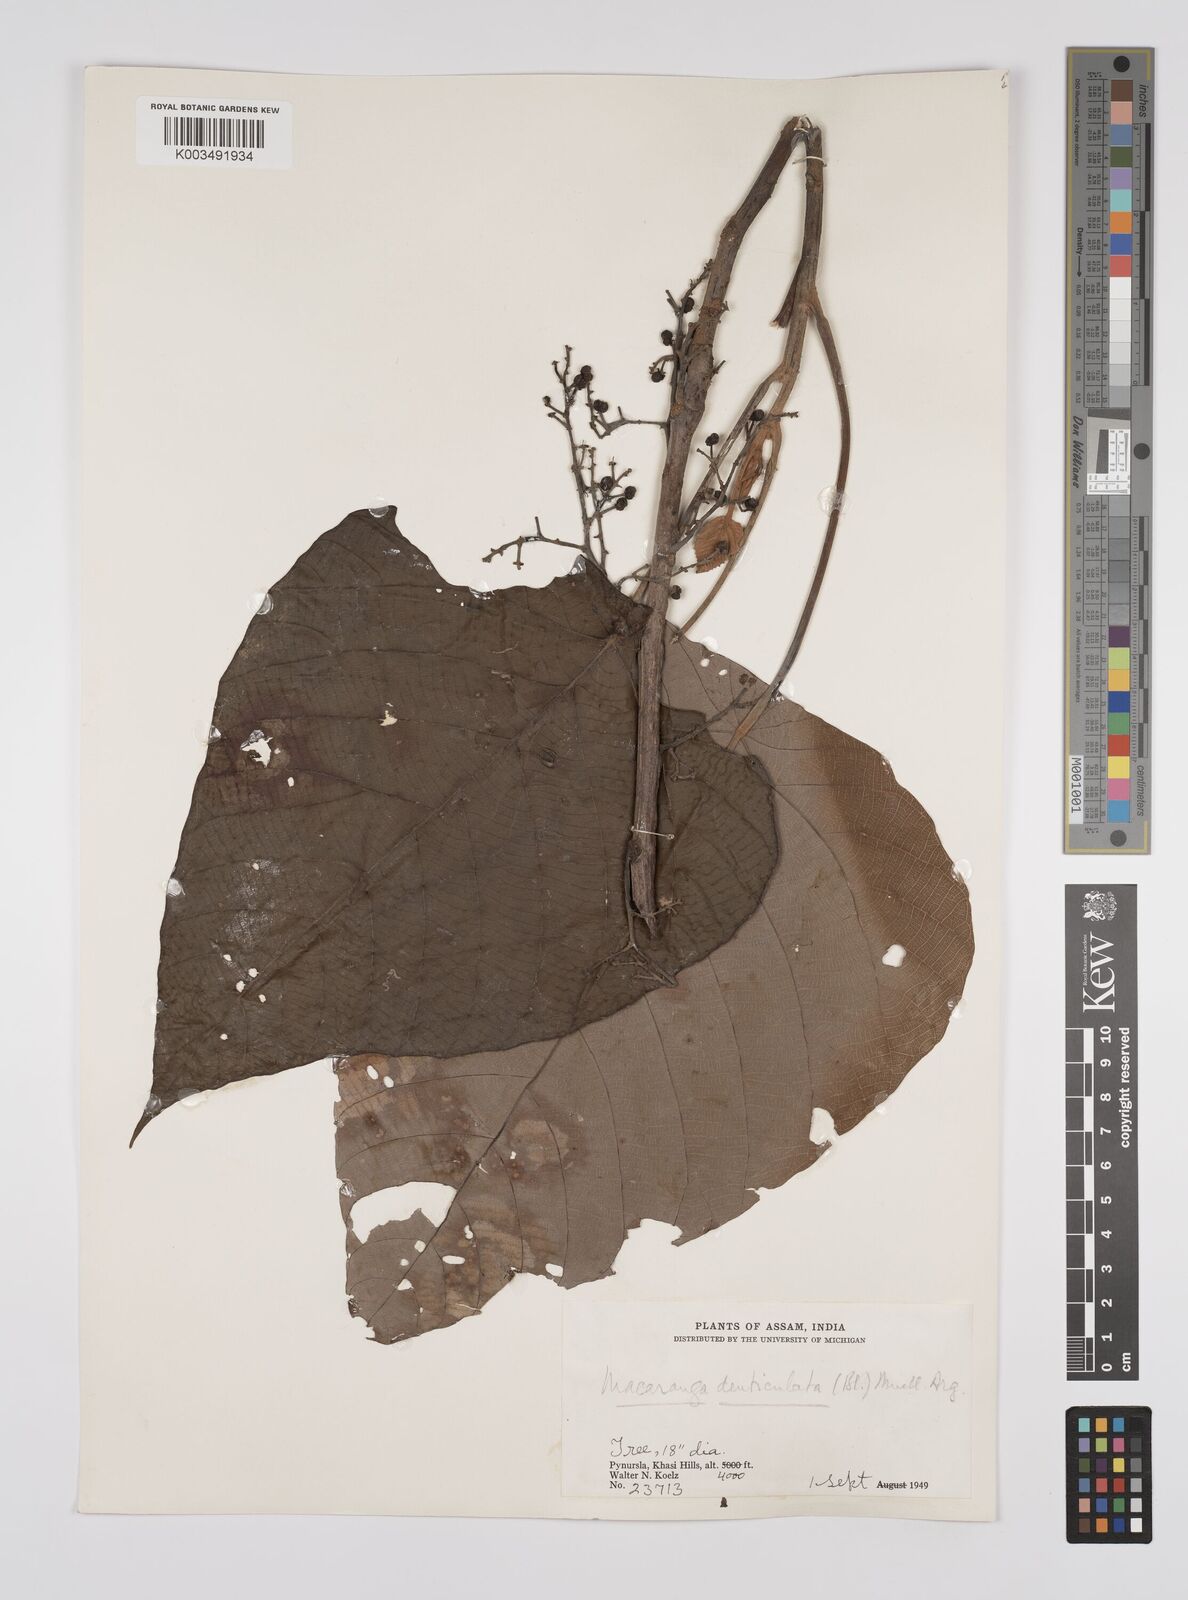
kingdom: Plantae
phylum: Tracheophyta
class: Magnoliopsida
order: Malpighiales
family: Euphorbiaceae
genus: Macaranga
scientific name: Macaranga denticulata
